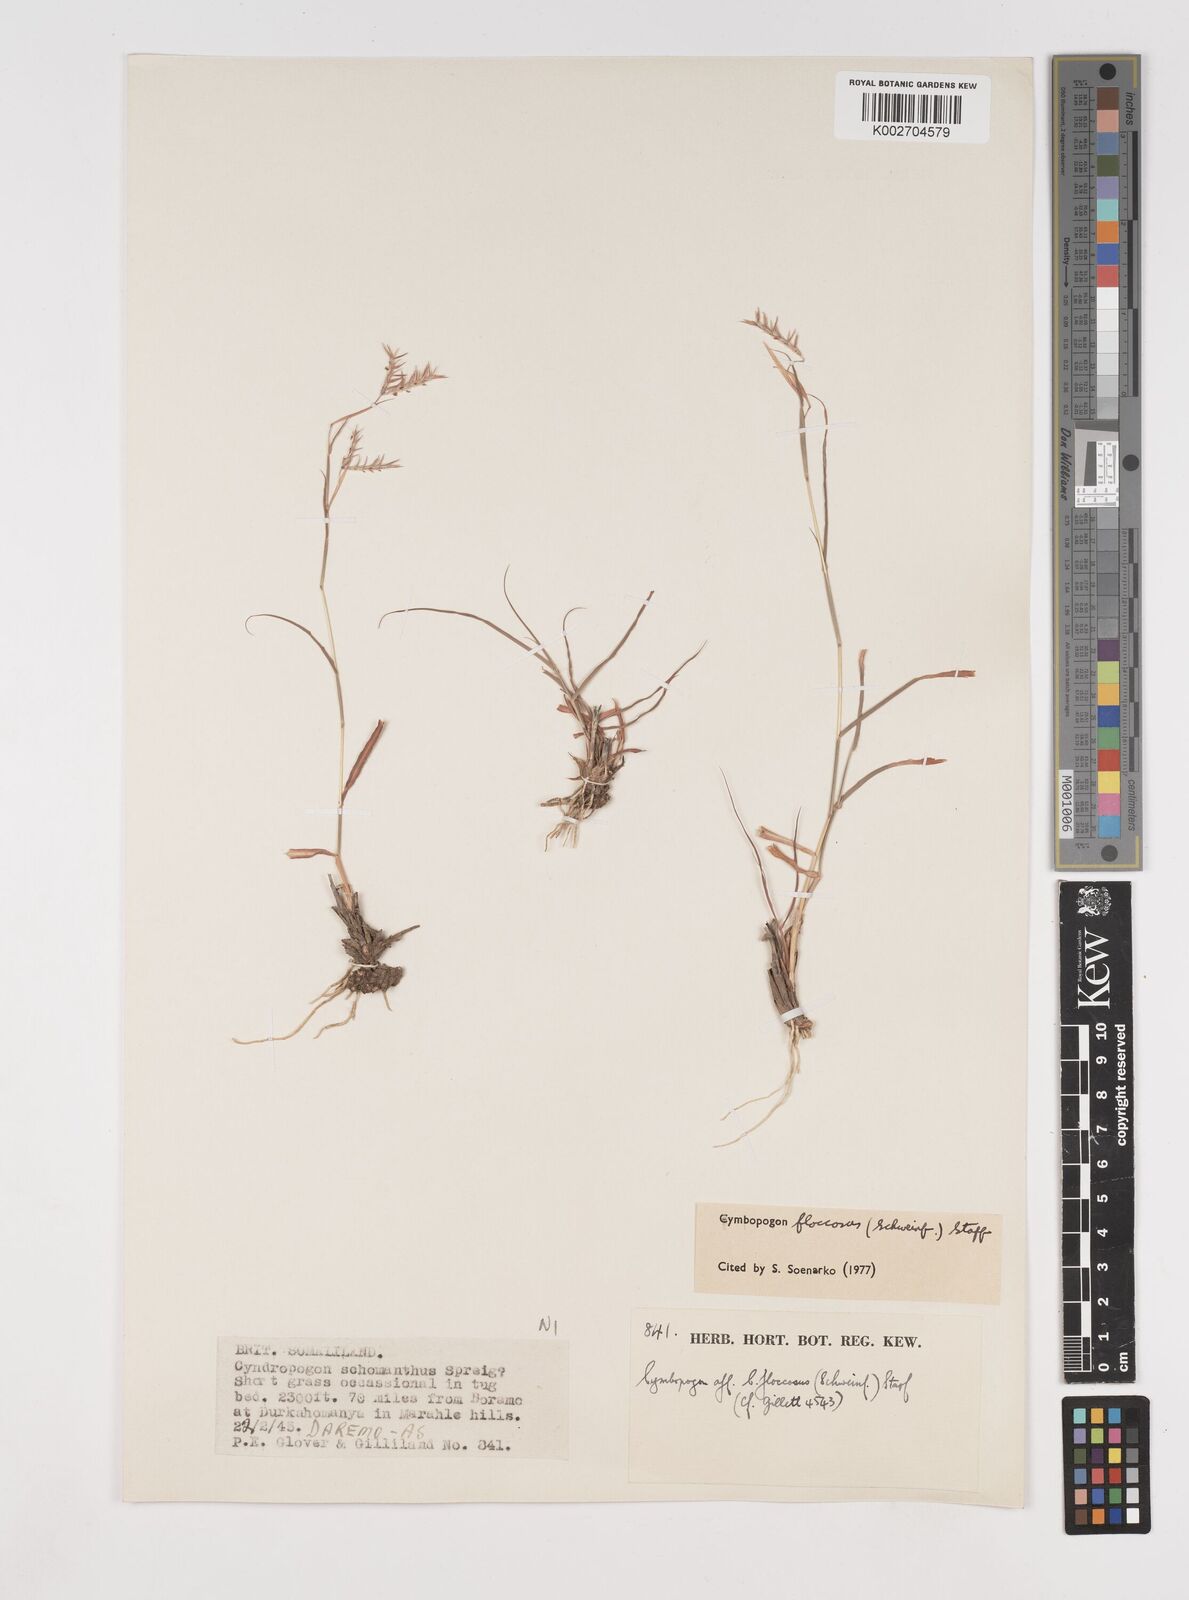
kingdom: Plantae
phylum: Tracheophyta
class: Liliopsida
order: Poales
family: Poaceae
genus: Cymbopogon
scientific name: Cymbopogon commutatus
